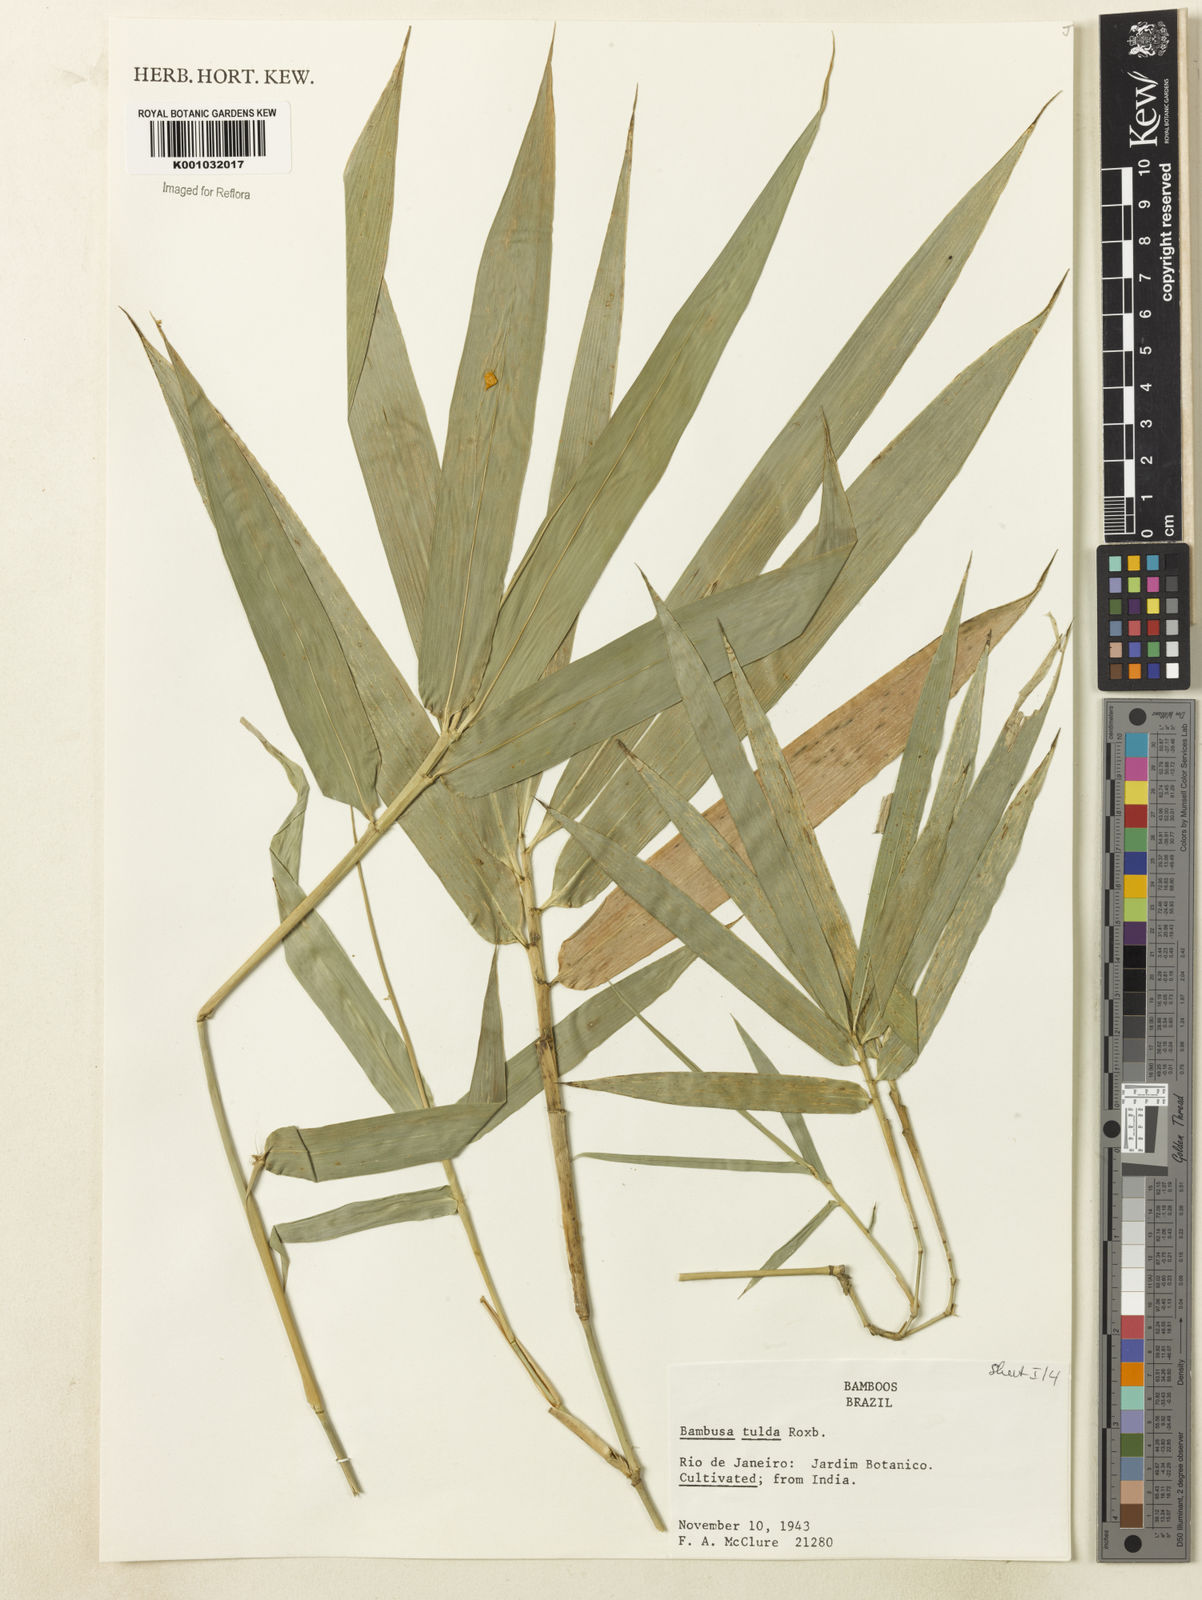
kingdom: Plantae
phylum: Tracheophyta
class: Liliopsida
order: Poales
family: Poaceae
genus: Bambusa
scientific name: Bambusa tulda
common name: Bengal bamboo
